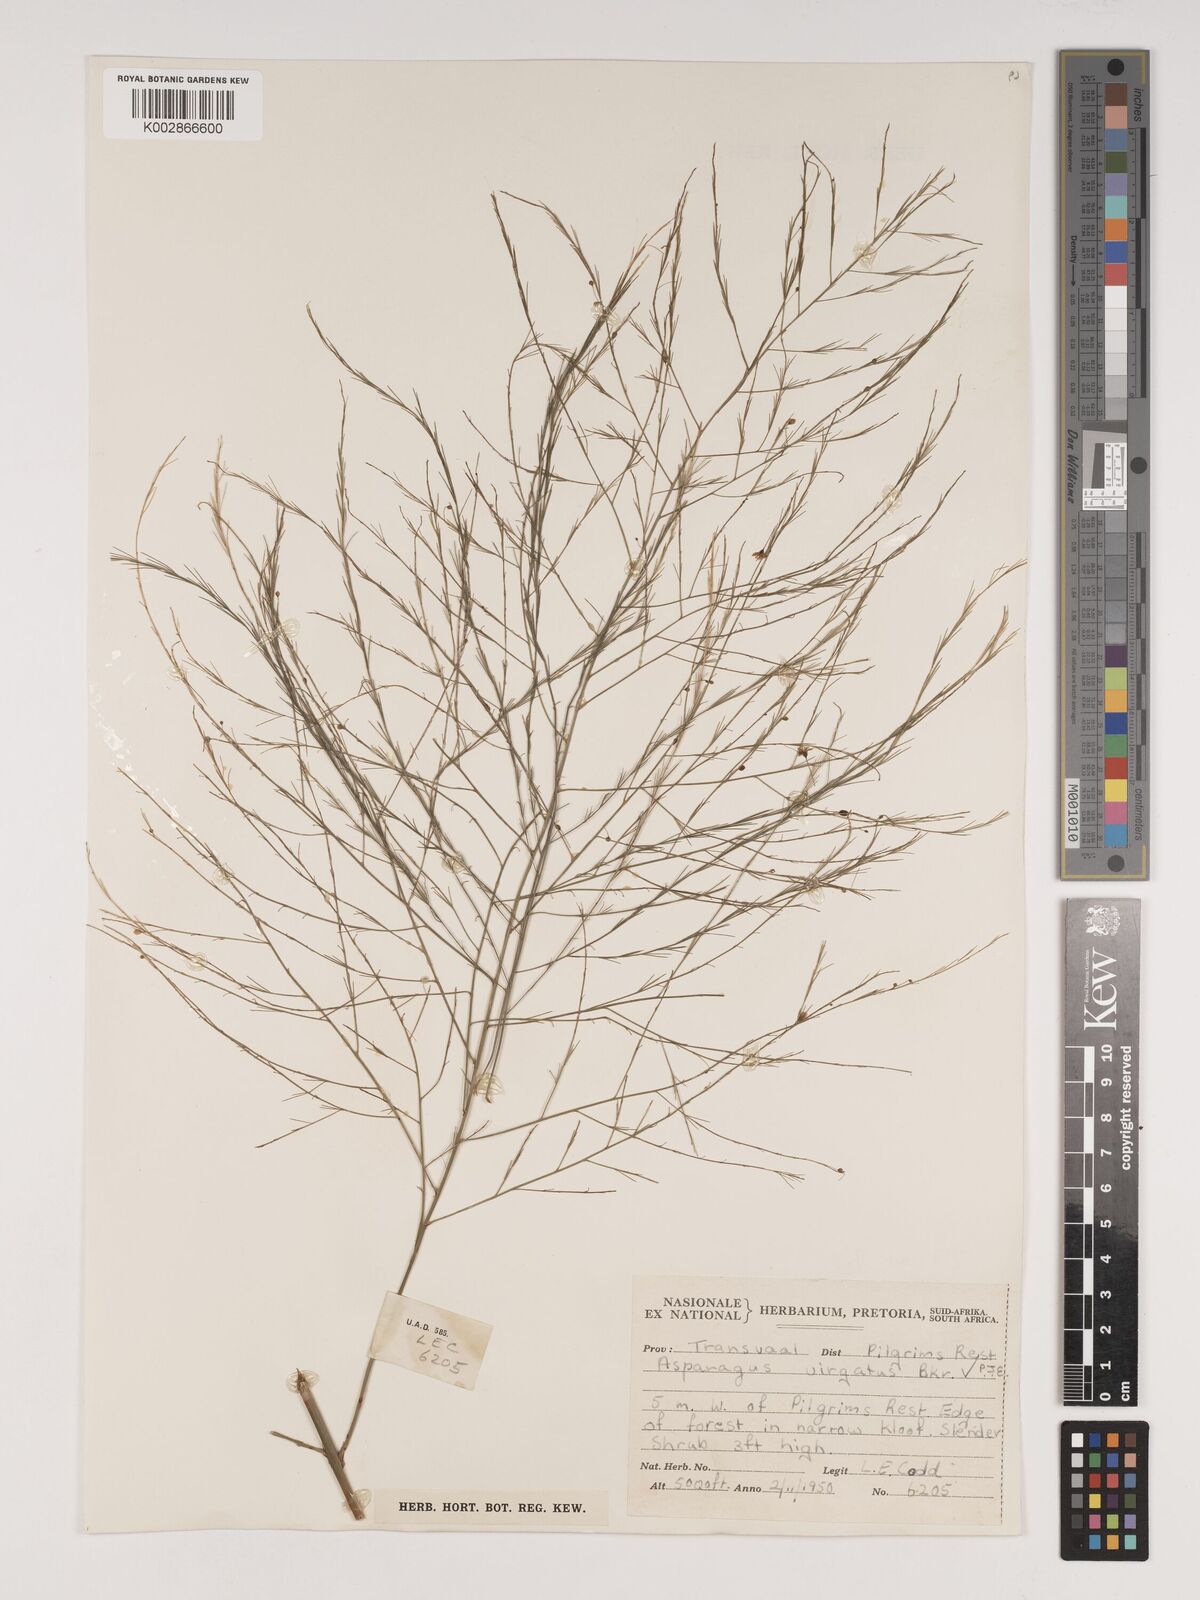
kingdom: Plantae
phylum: Tracheophyta
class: Liliopsida
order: Asparagales
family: Asparagaceae
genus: Asparagus
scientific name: Asparagus virgatus
